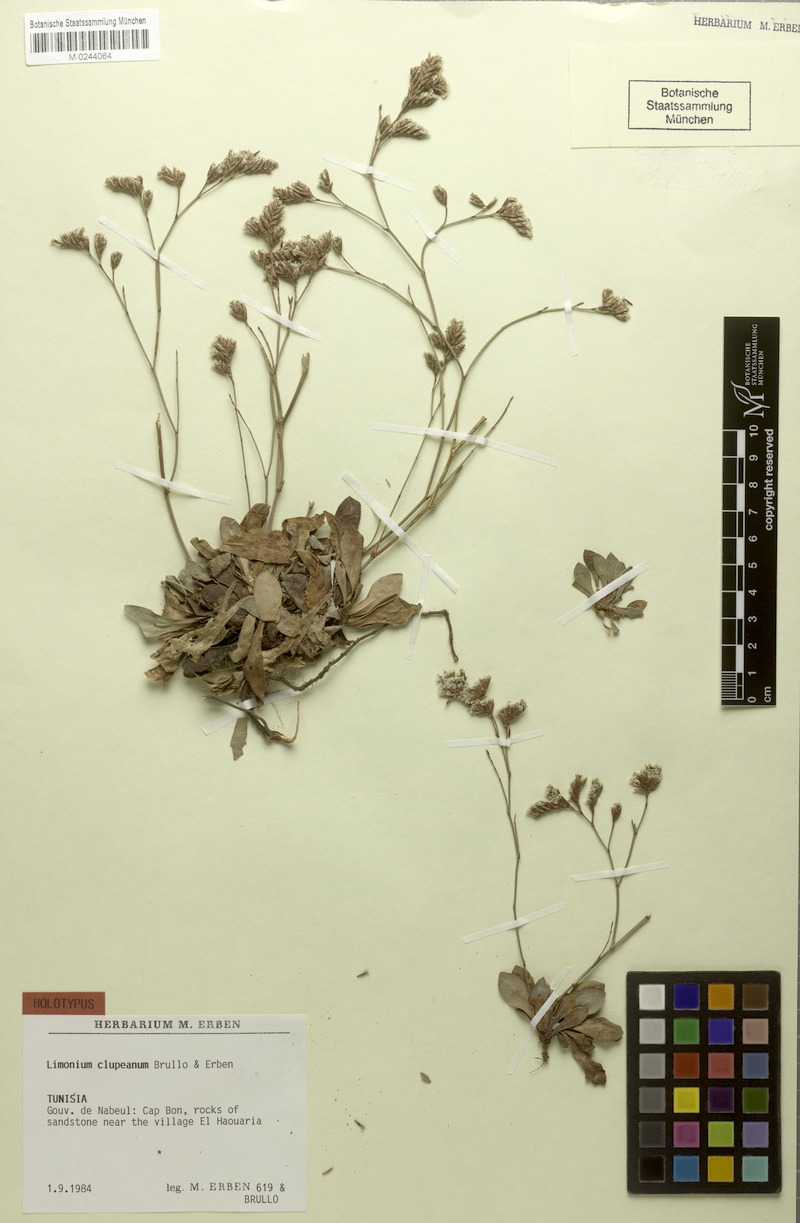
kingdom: Plantae
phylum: Tracheophyta
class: Magnoliopsida
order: Caryophyllales
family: Plumbaginaceae
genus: Limonium
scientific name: Limonium clupeanum
